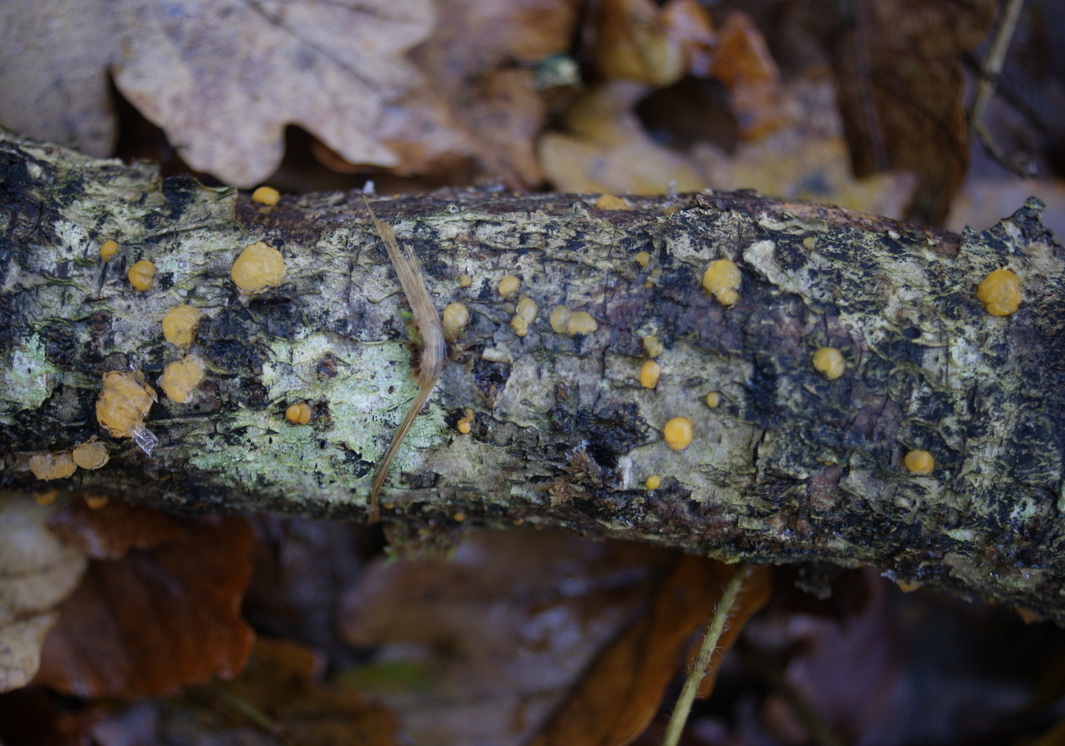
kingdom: Fungi
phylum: Basidiomycota
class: Dacrymycetes
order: Dacrymycetales
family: Dacrymycetaceae
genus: Dacrymyces
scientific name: Dacrymyces lacrymalis
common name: rynket tåresvamp
